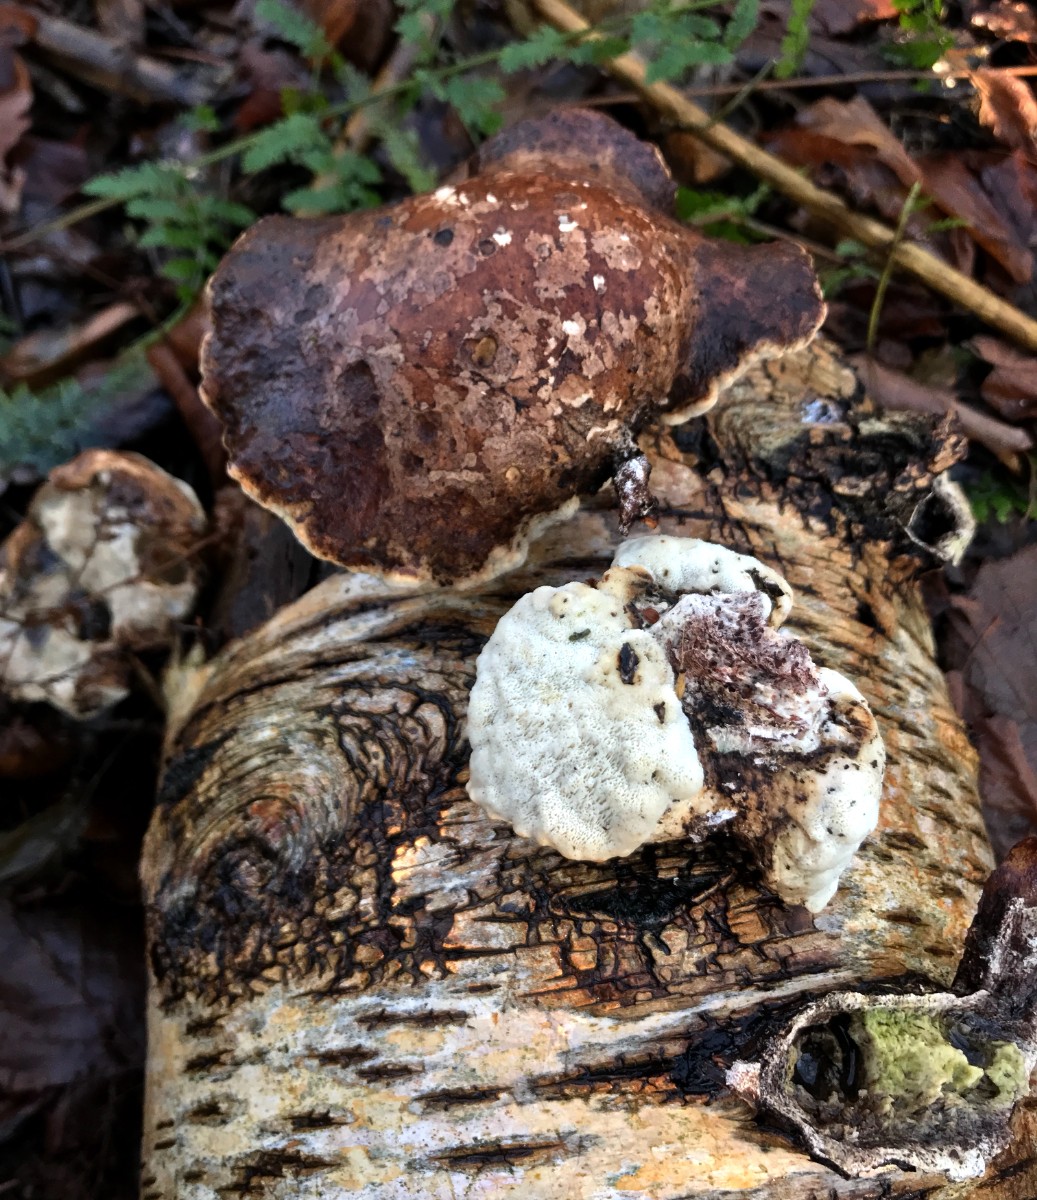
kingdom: Fungi
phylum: Basidiomycota
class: Agaricomycetes
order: Polyporales
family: Fomitopsidaceae
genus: Fomitopsis
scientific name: Fomitopsis betulina
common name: birkeporesvamp
